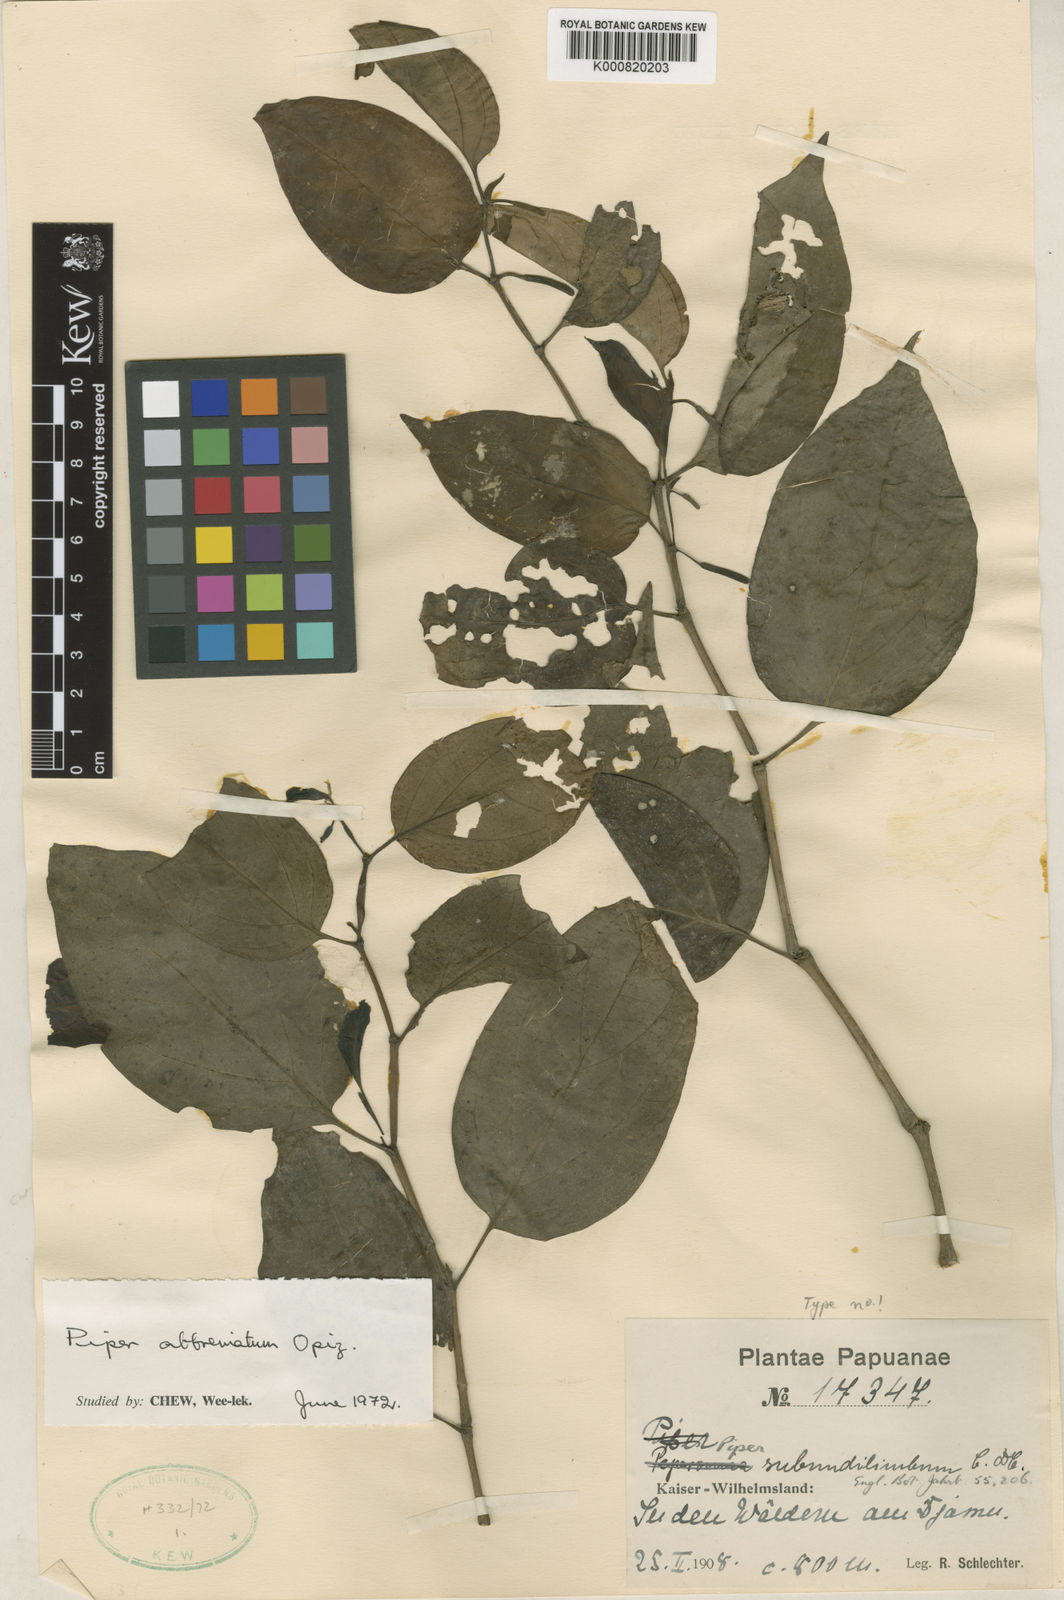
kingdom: Plantae
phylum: Tracheophyta
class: Magnoliopsida
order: Piperales
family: Piperaceae
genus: Piper
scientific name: Piper abbreviatum
